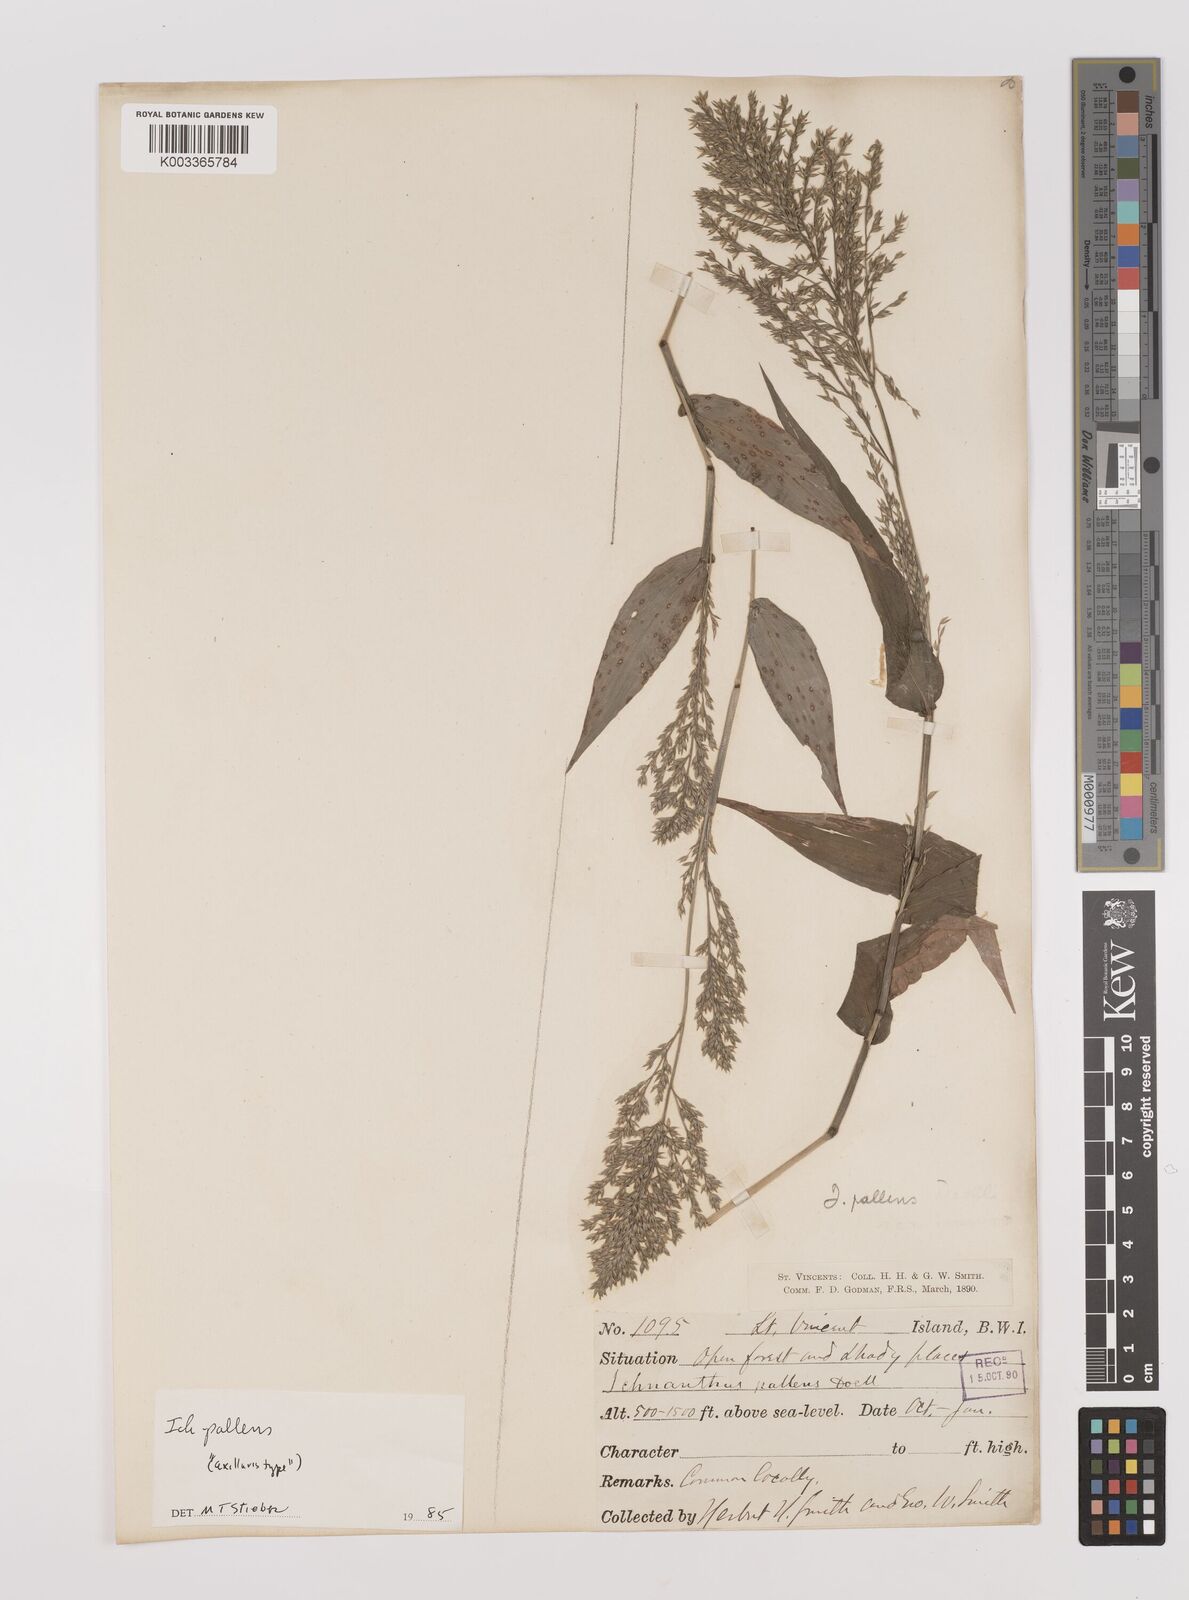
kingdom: Plantae
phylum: Tracheophyta
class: Liliopsida
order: Poales
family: Poaceae
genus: Ichnanthus
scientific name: Ichnanthus pallens
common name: Water grass
